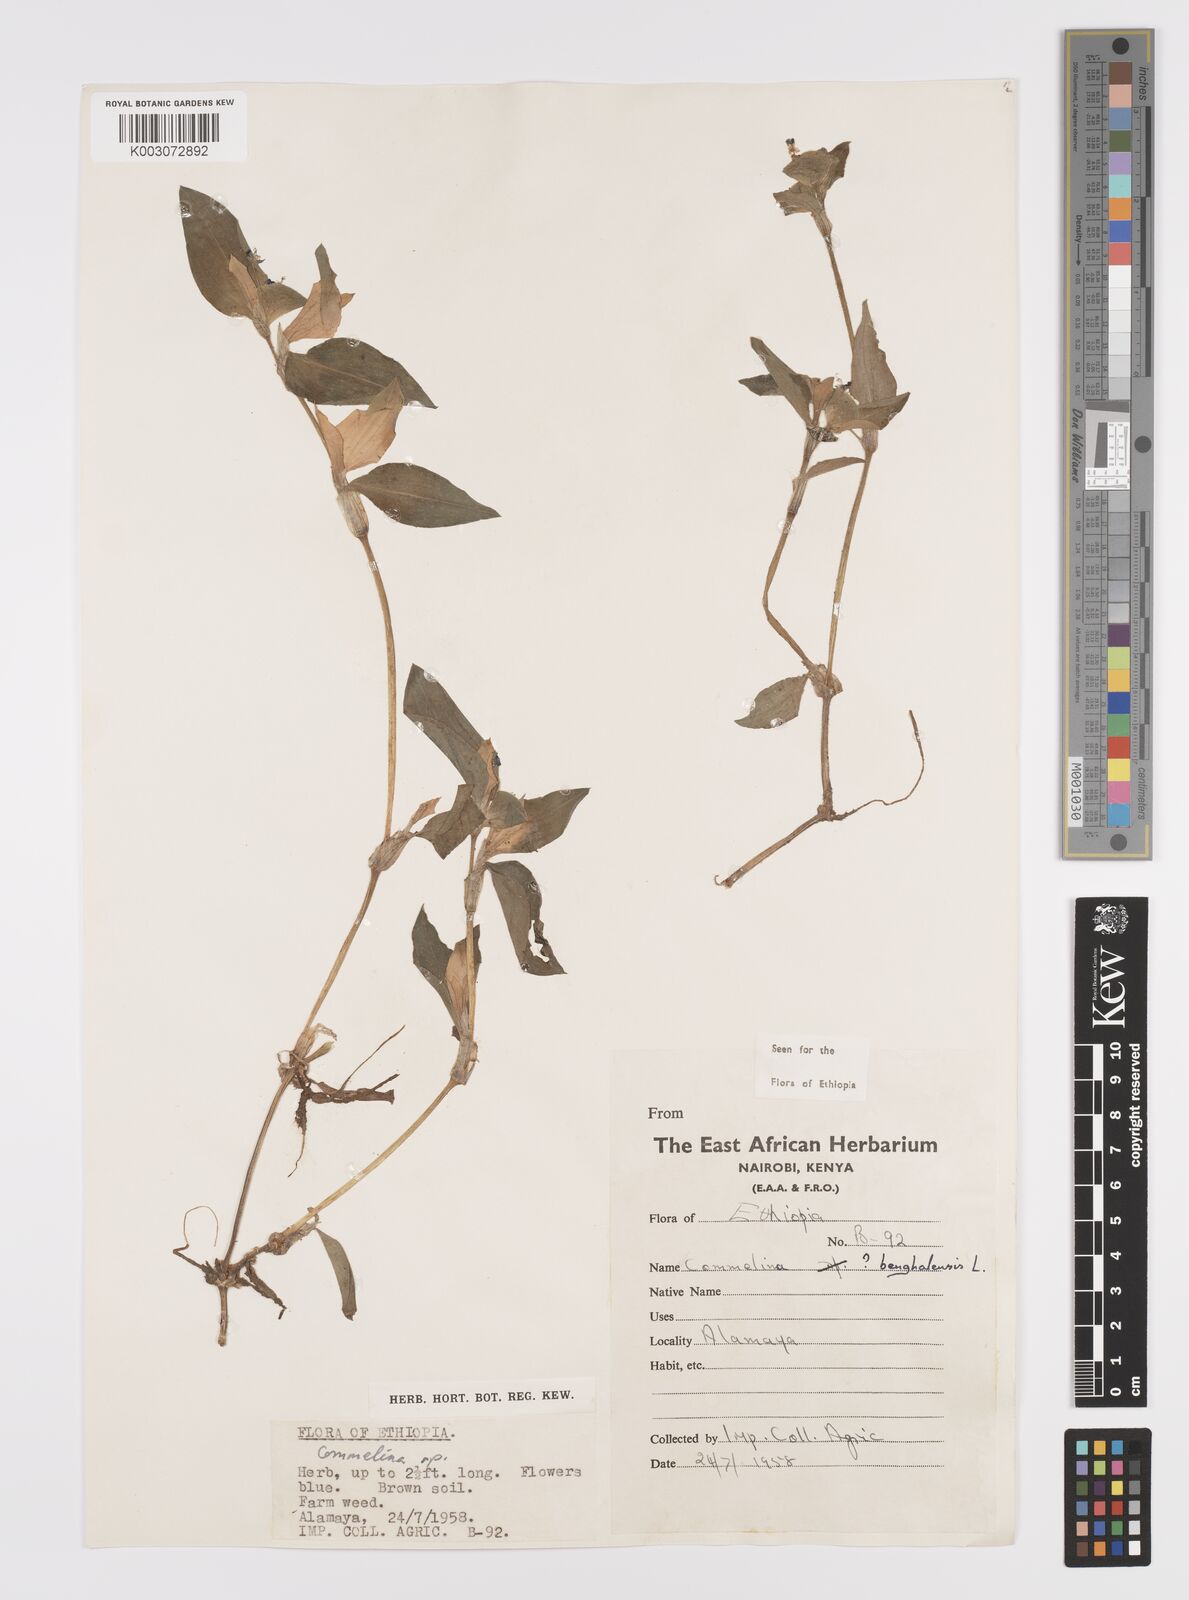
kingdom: Plantae
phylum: Tracheophyta
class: Liliopsida
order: Commelinales
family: Commelinaceae
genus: Commelina
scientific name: Commelina benghalensis
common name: Jio
